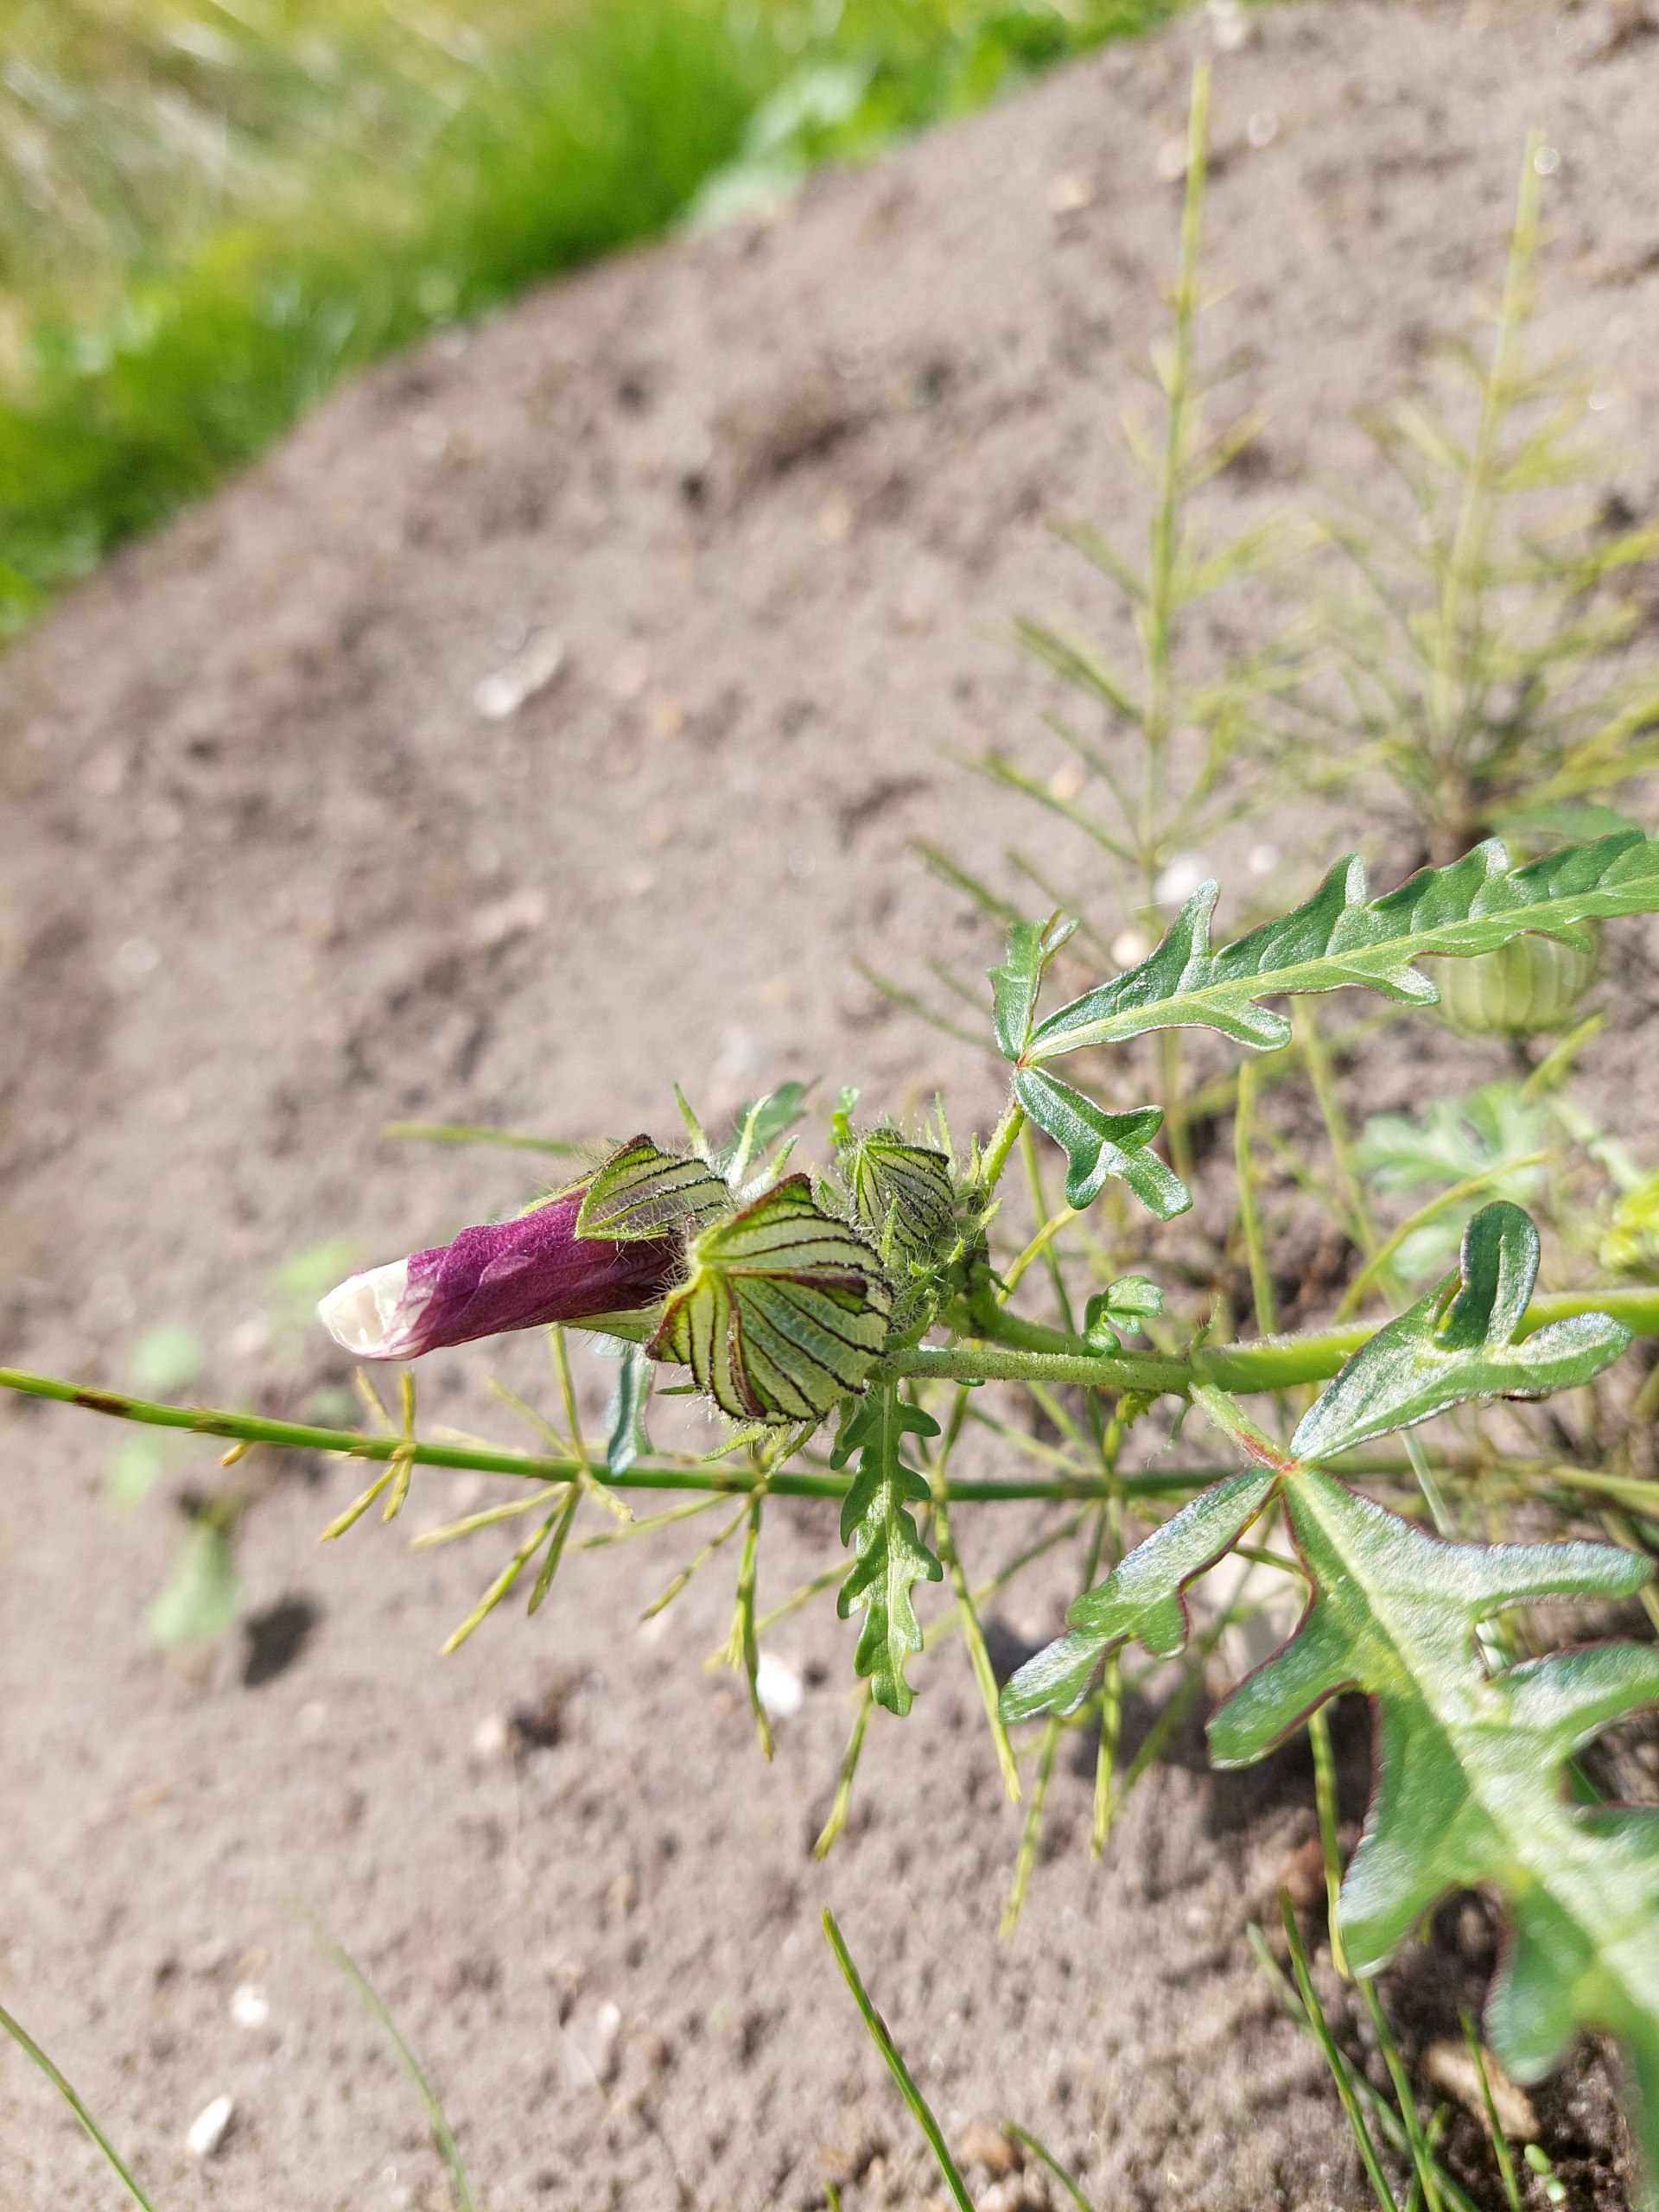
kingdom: Plantae
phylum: Tracheophyta
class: Magnoliopsida
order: Malvales
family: Malvaceae
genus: Hibiscus
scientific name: Hibiscus trionum
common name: Læge-katost
